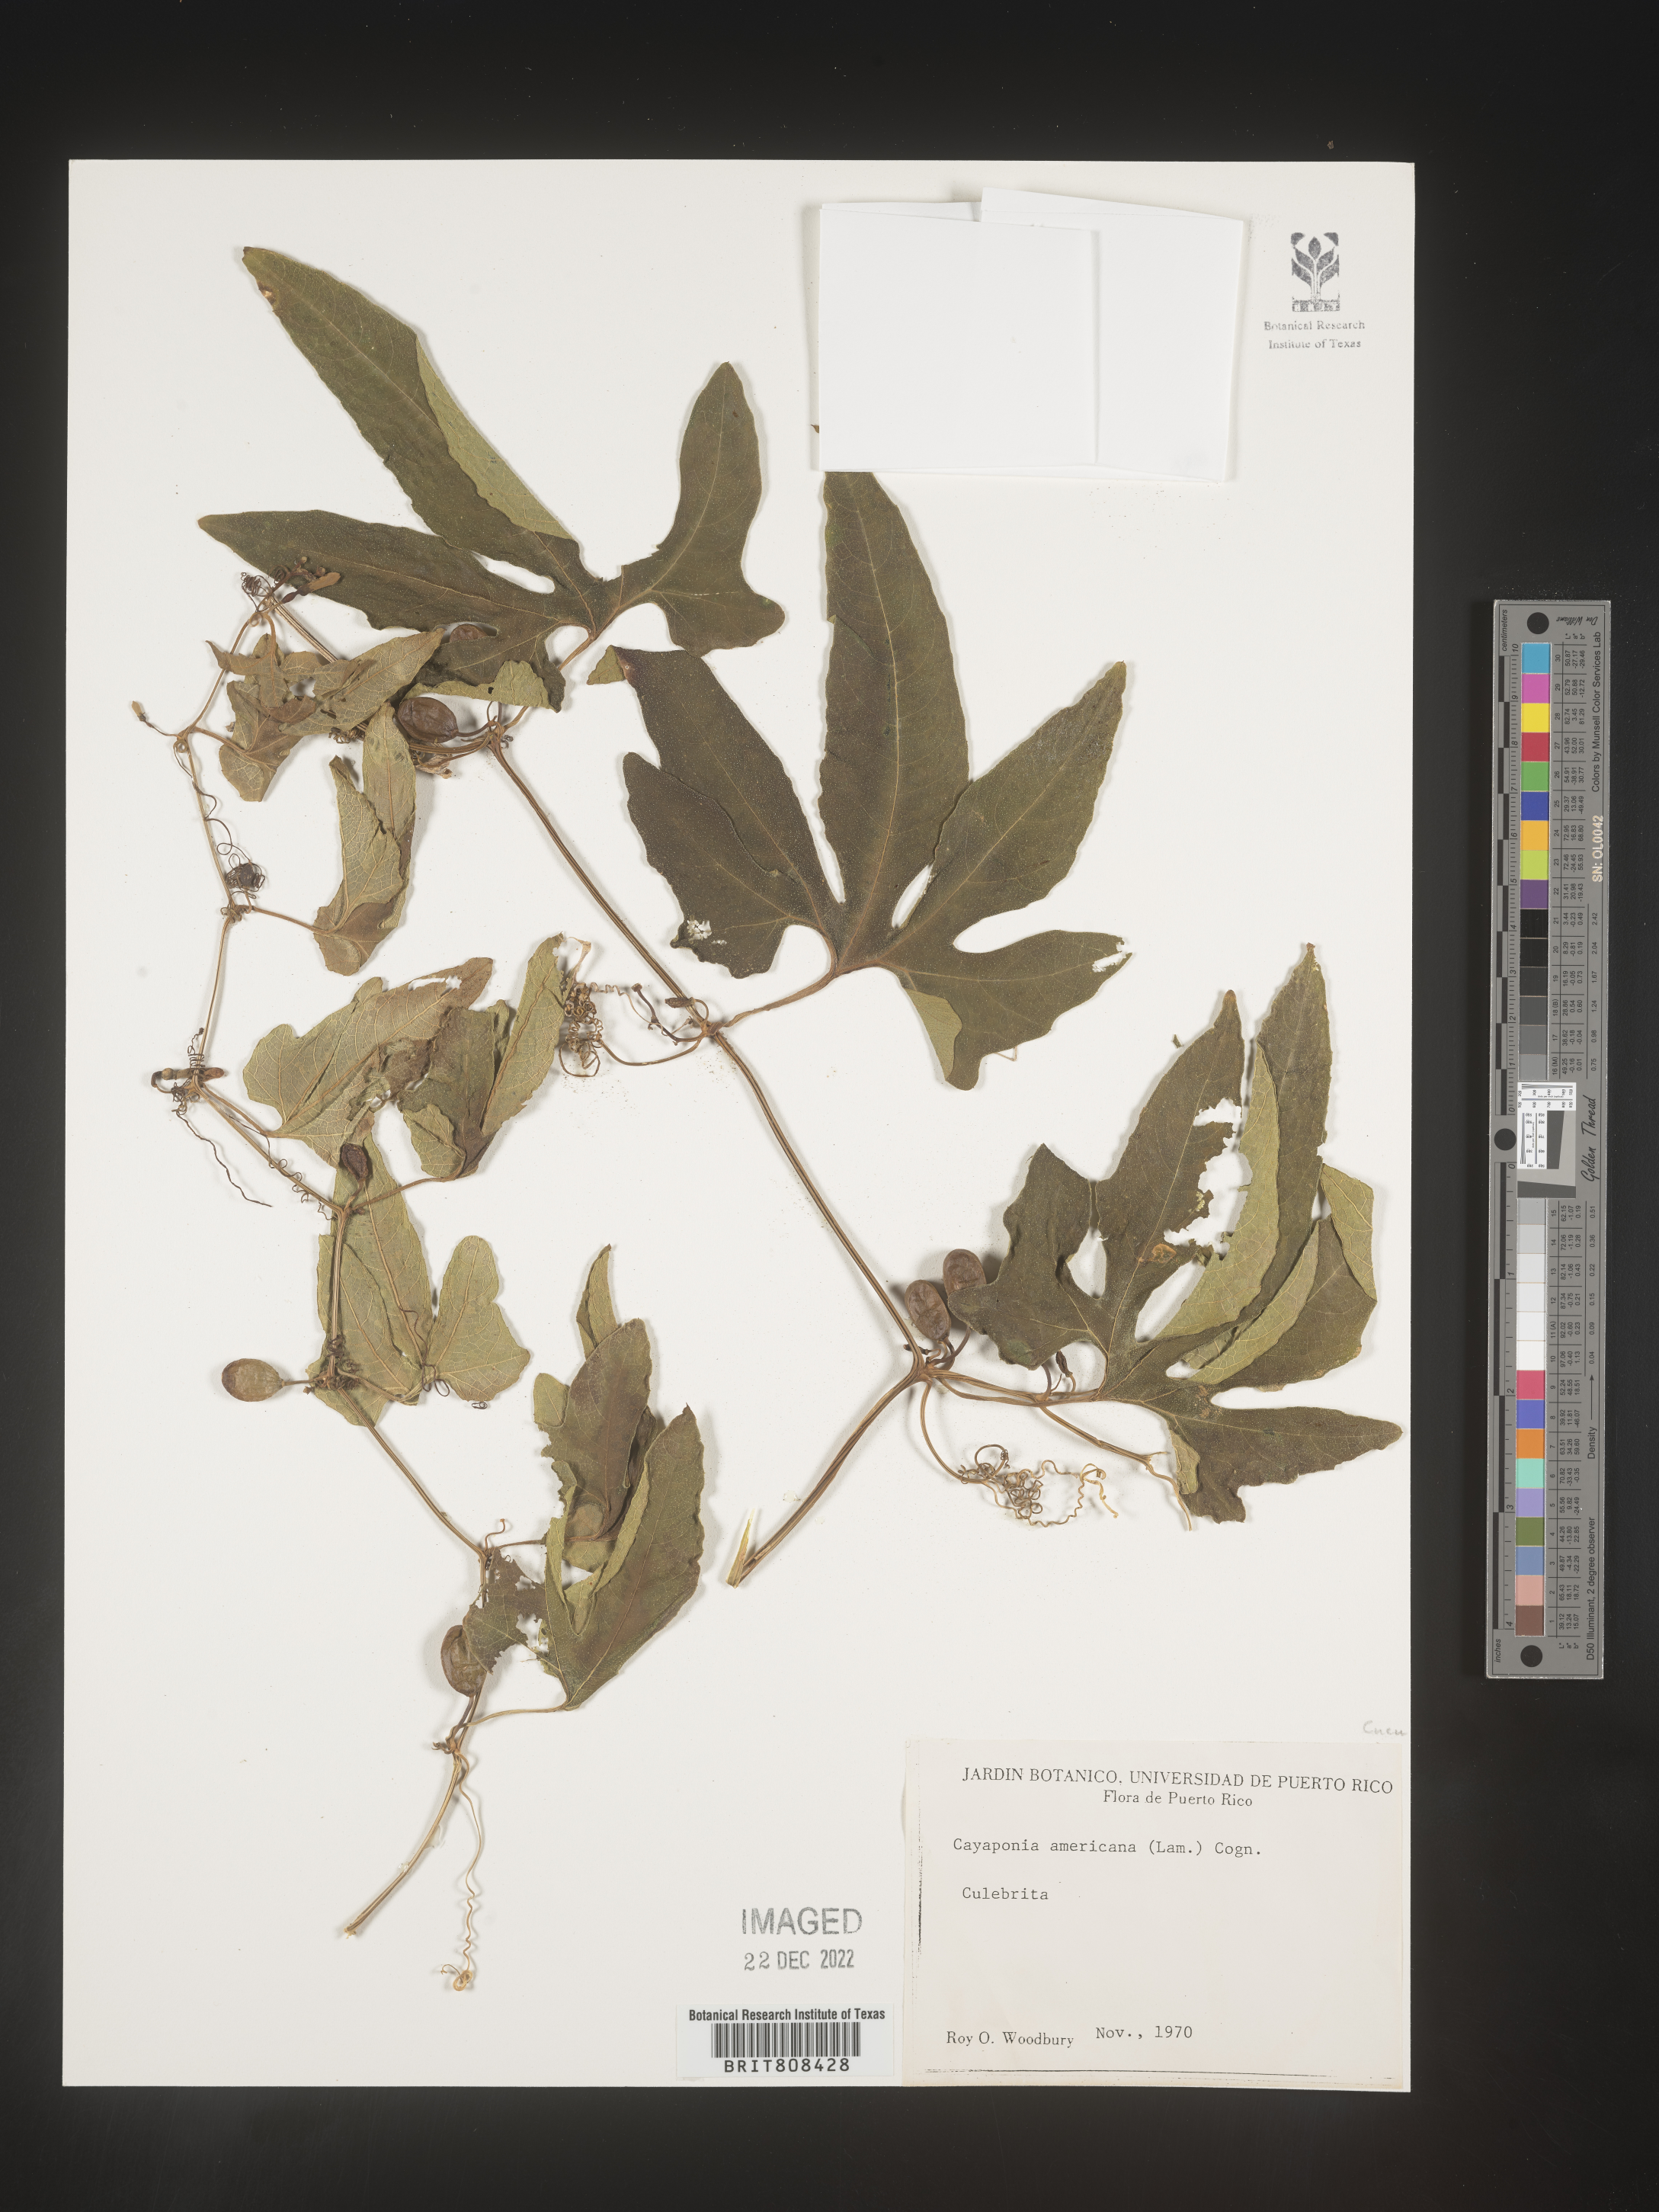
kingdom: Plantae
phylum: Tracheophyta
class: Magnoliopsida
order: Cucurbitales
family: Cucurbitaceae
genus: Cayaponia
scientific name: Cayaponia
